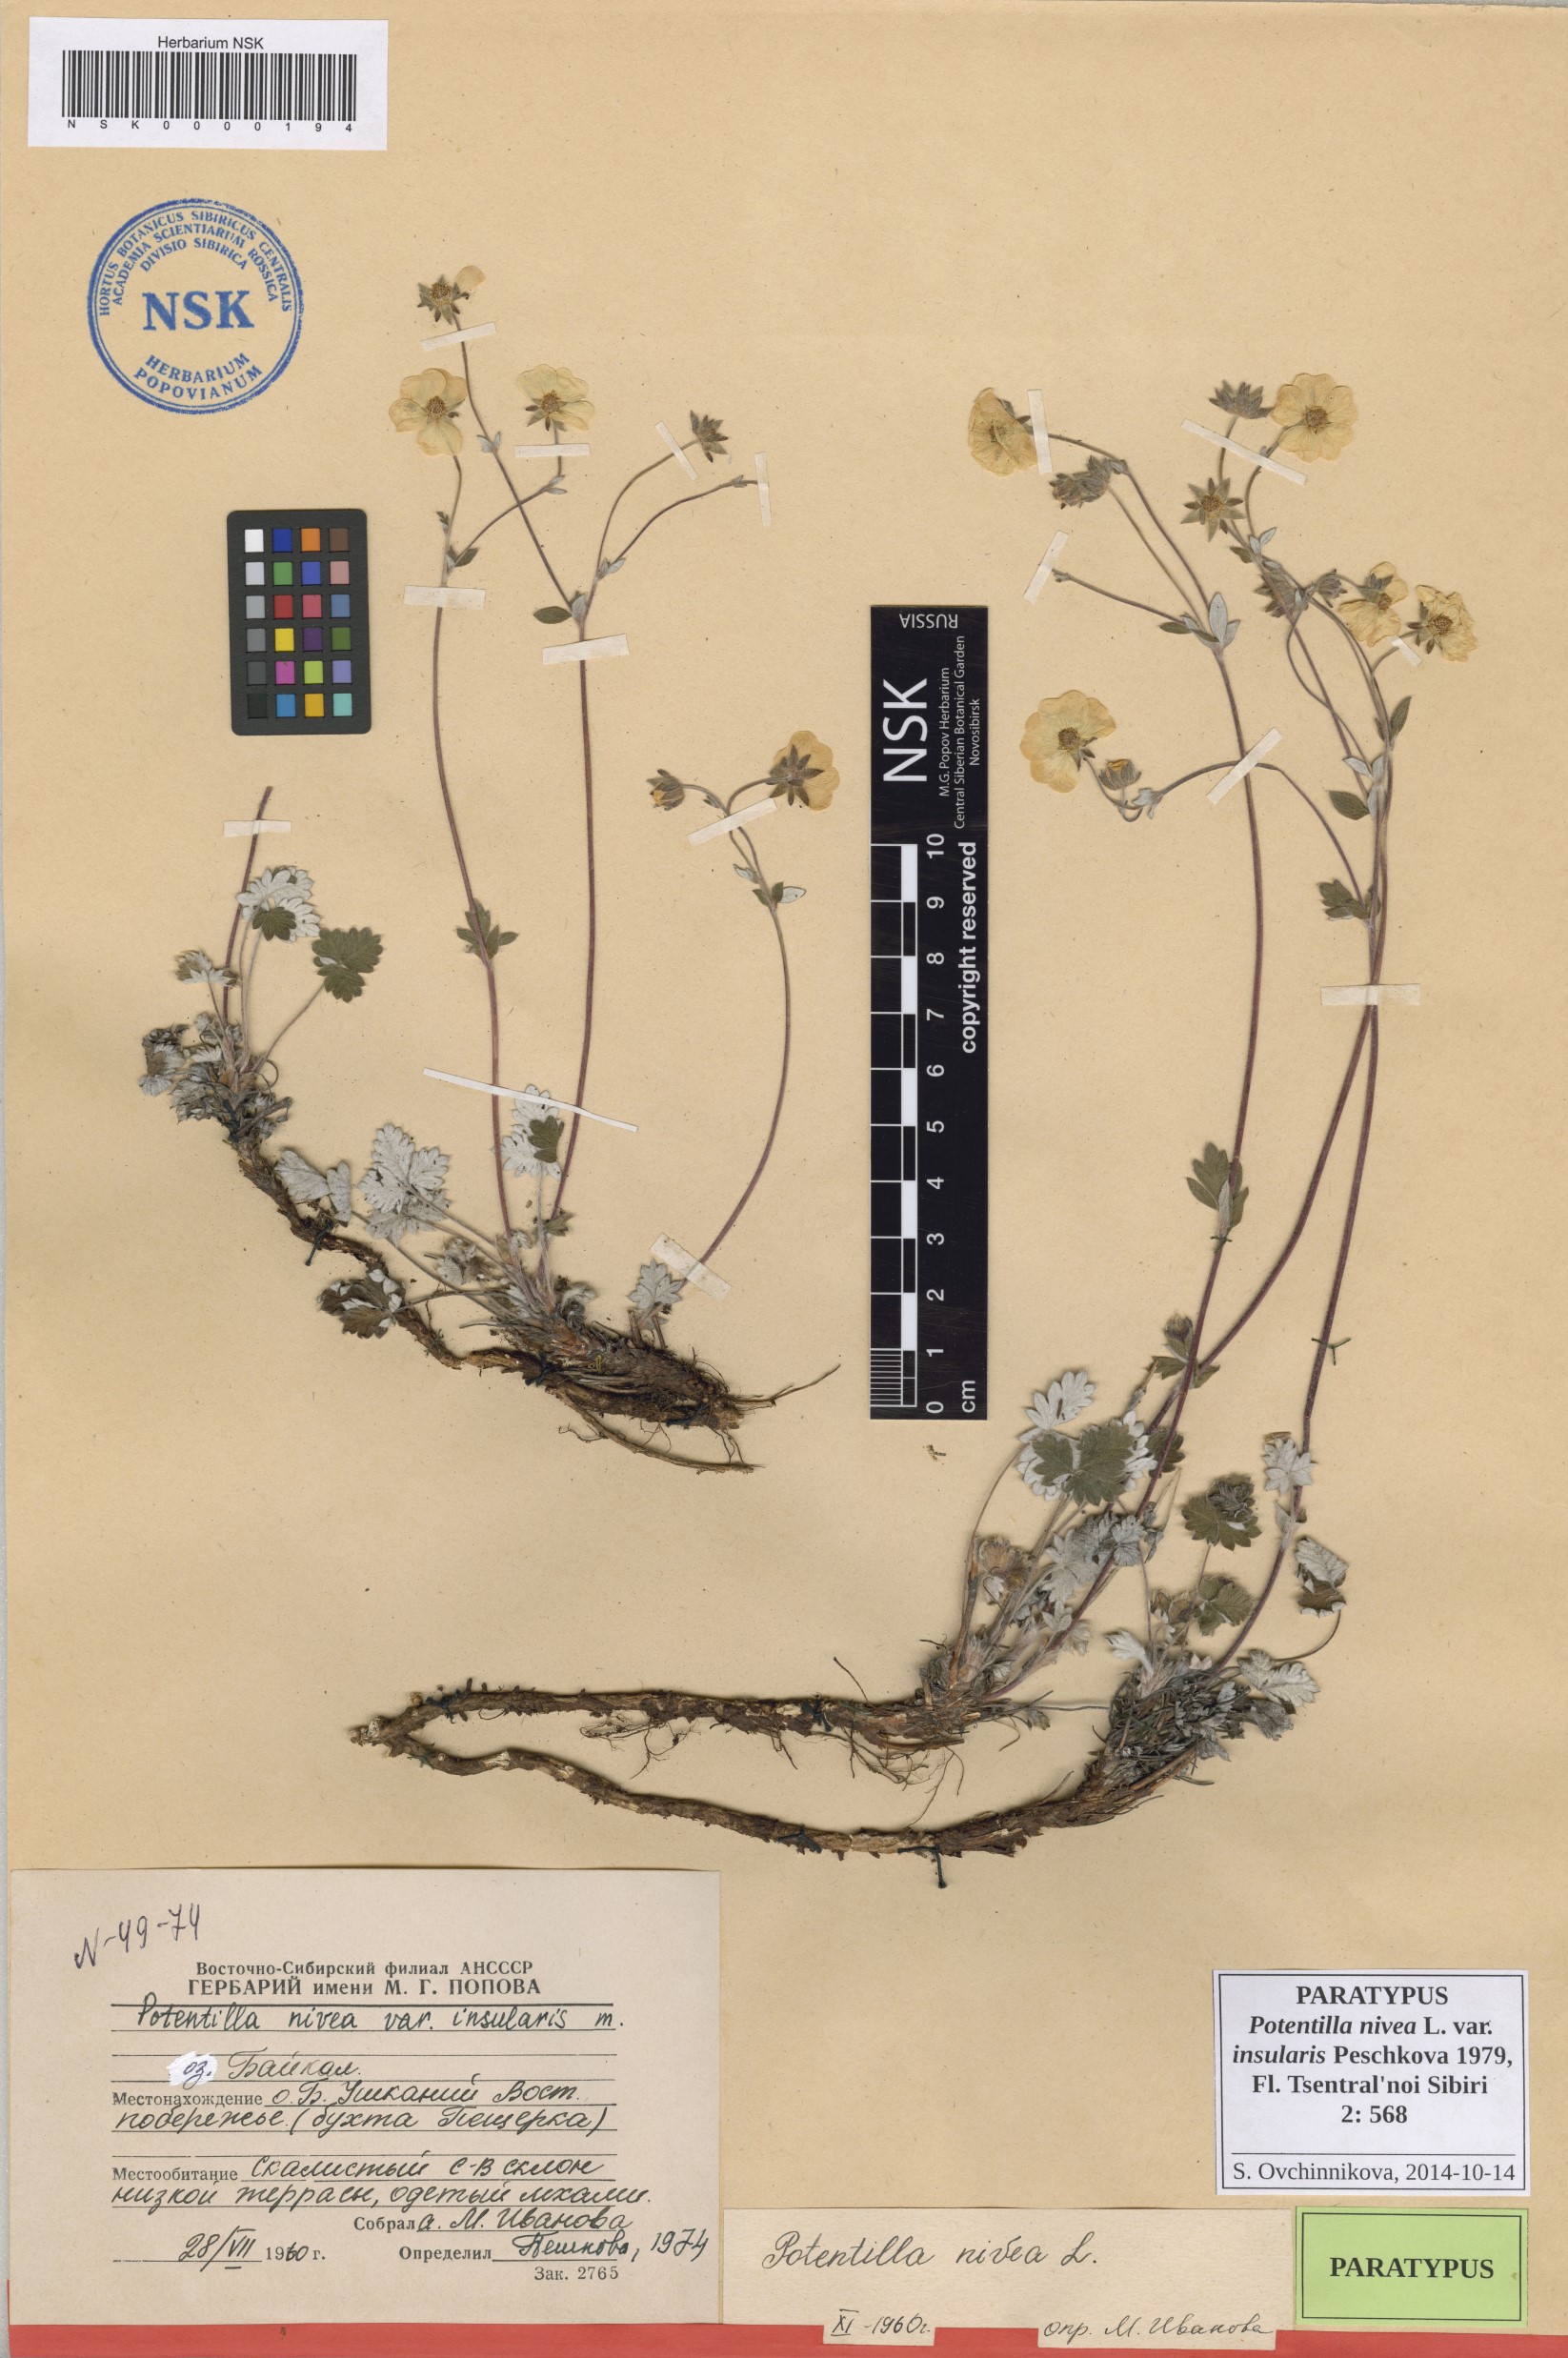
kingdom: Plantae
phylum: Tracheophyta
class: Magnoliopsida
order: Rosales
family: Rosaceae
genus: Potentilla
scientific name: Potentilla nivea
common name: Snow cinquefoil
